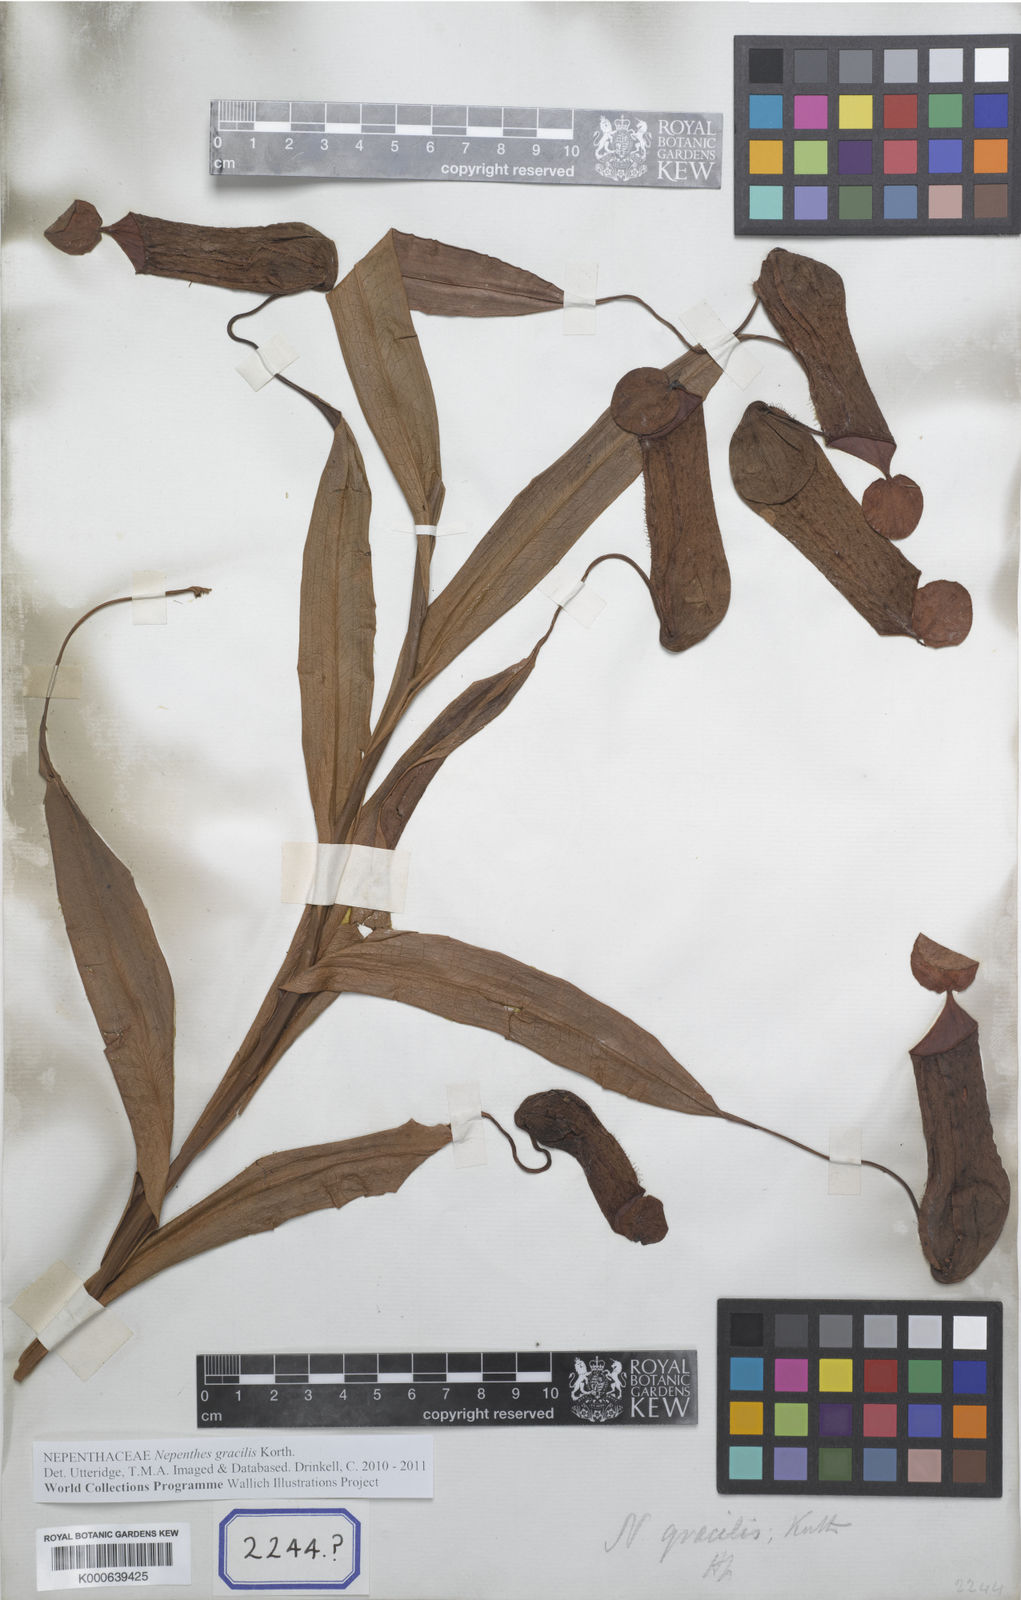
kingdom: Plantae
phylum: Tracheophyta
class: Magnoliopsida
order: Caryophyllales
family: Nepenthaceae
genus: Nepenthes
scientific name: Nepenthes gracilis
